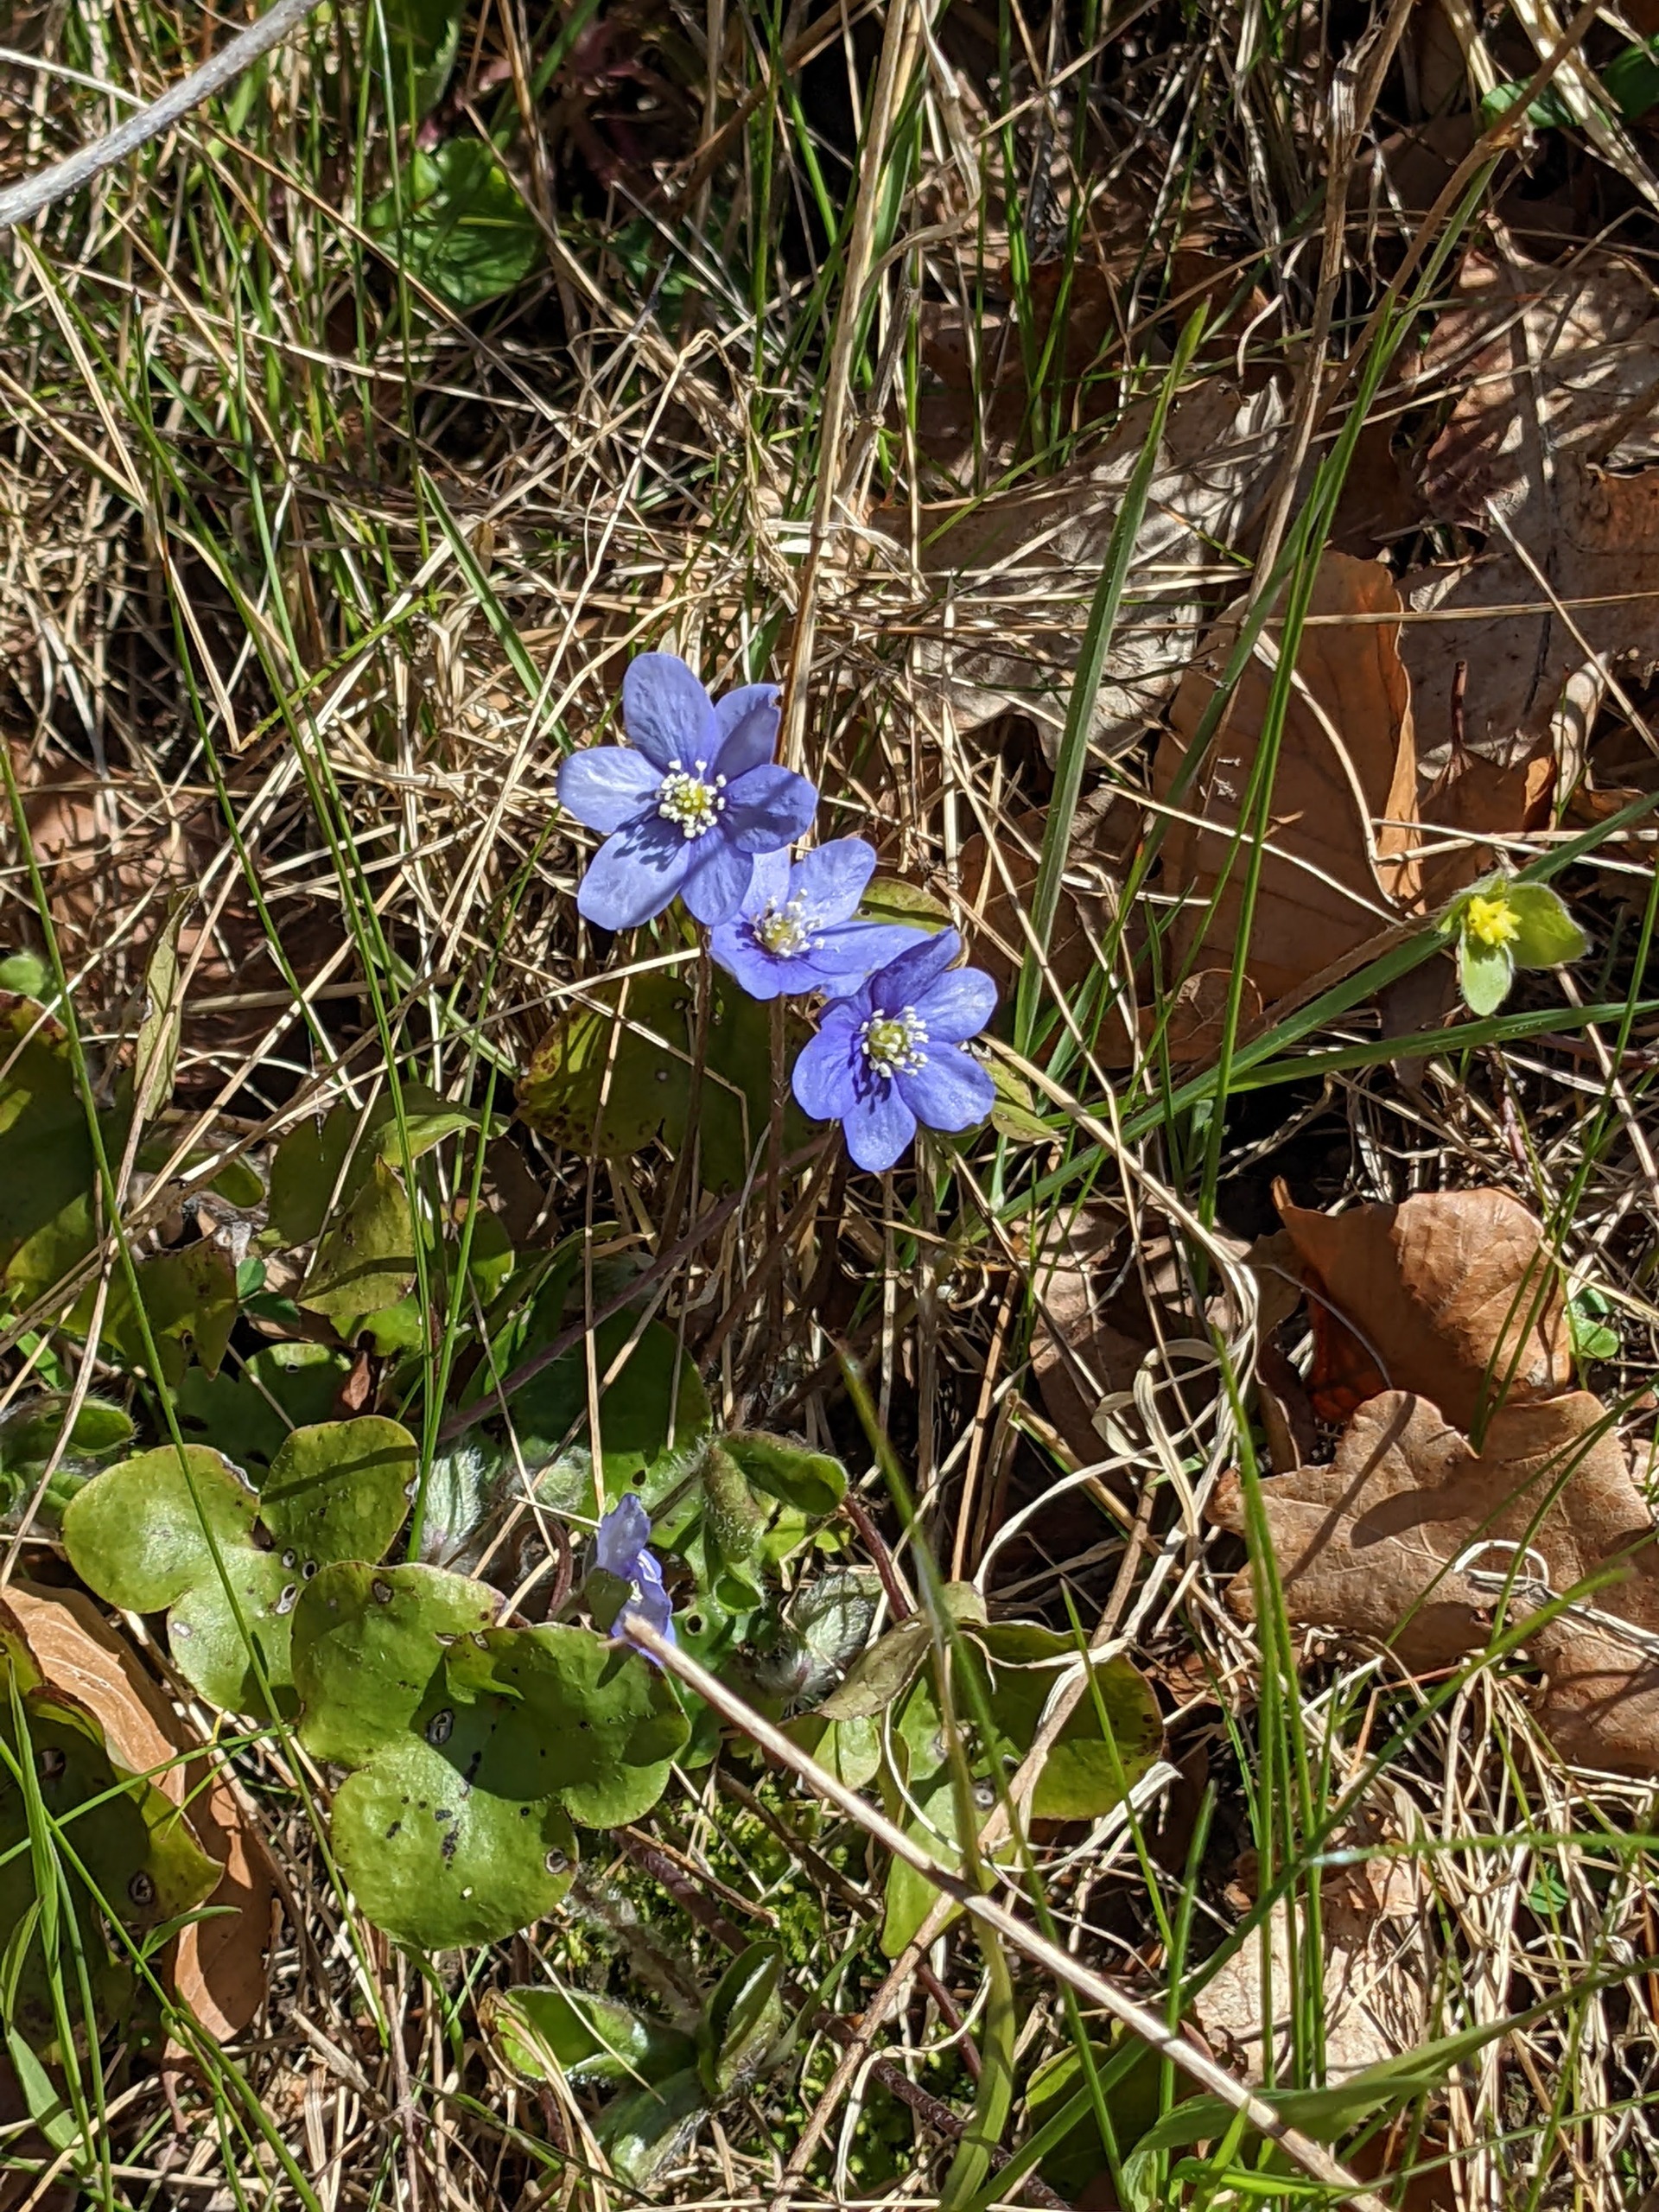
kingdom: Plantae
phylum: Tracheophyta
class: Magnoliopsida
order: Ranunculales
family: Ranunculaceae
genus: Hepatica
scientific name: Hepatica nobilis
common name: Blå anemone
